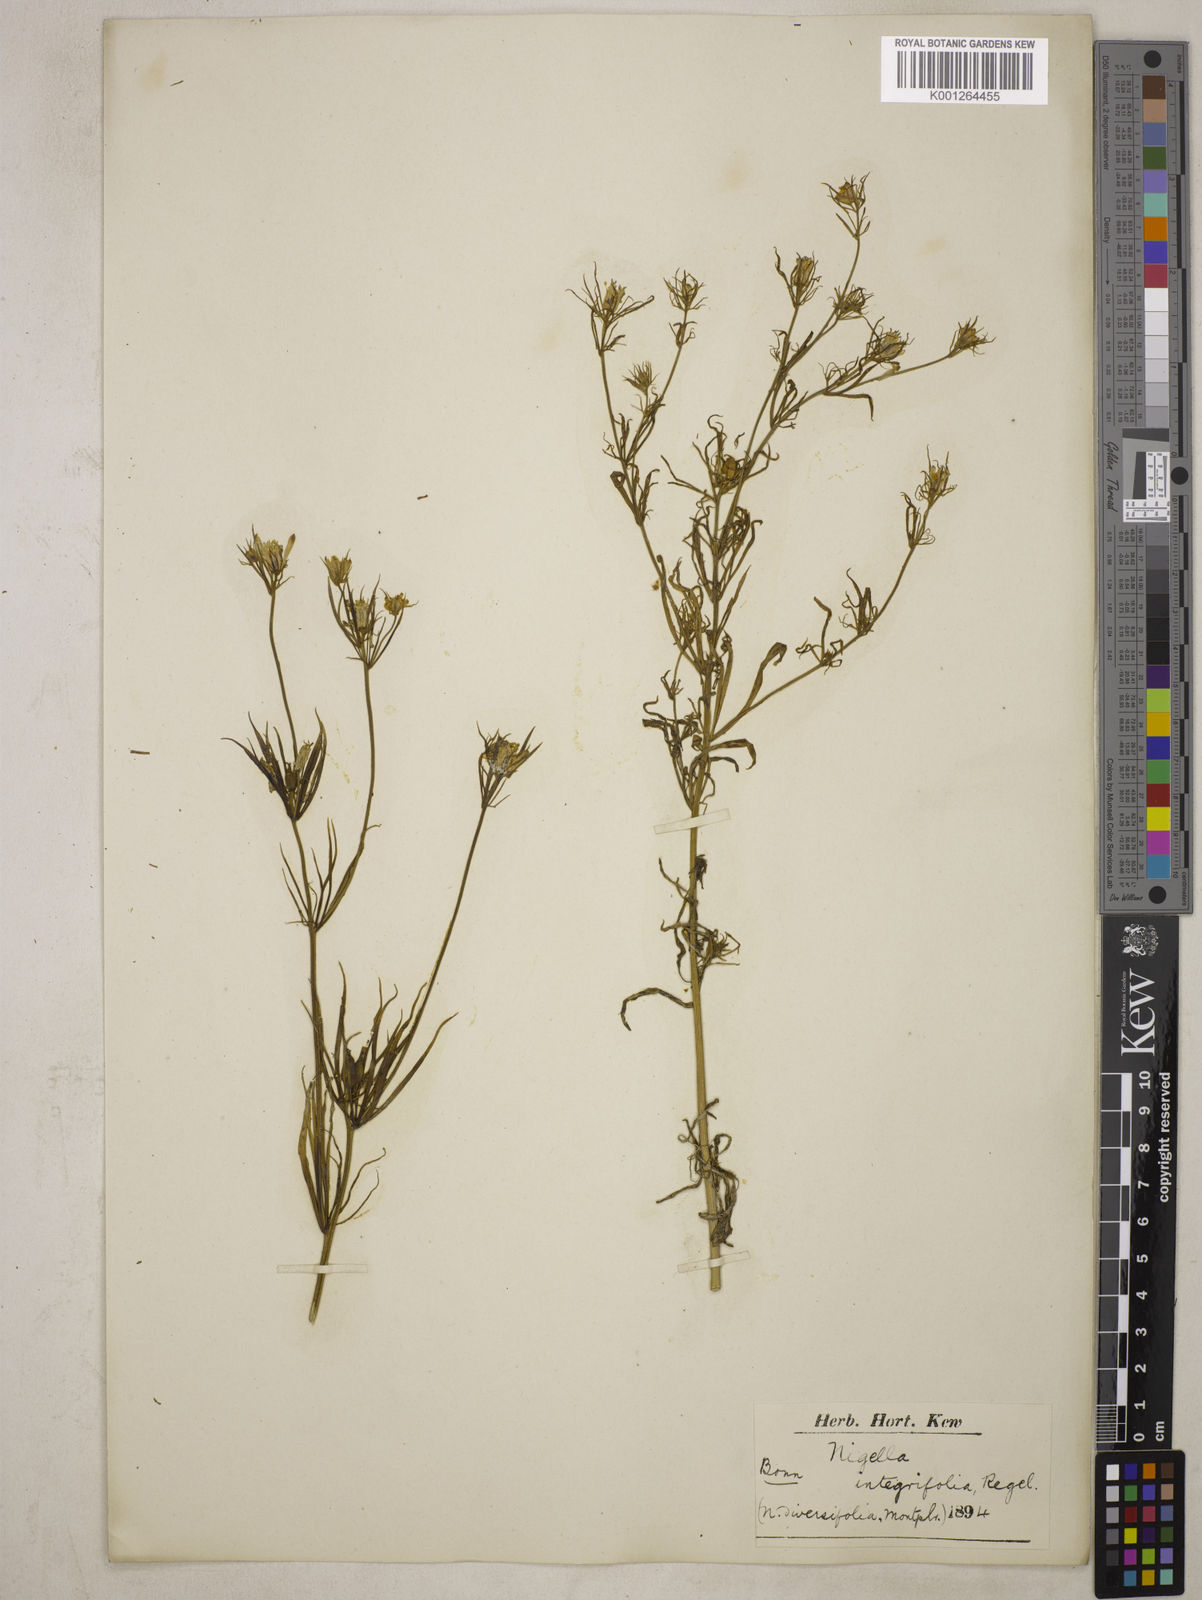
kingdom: Plantae
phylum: Tracheophyta
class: Magnoliopsida
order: Ranunculales
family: Ranunculaceae
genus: Komaroffia
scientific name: Komaroffia integrifolia
